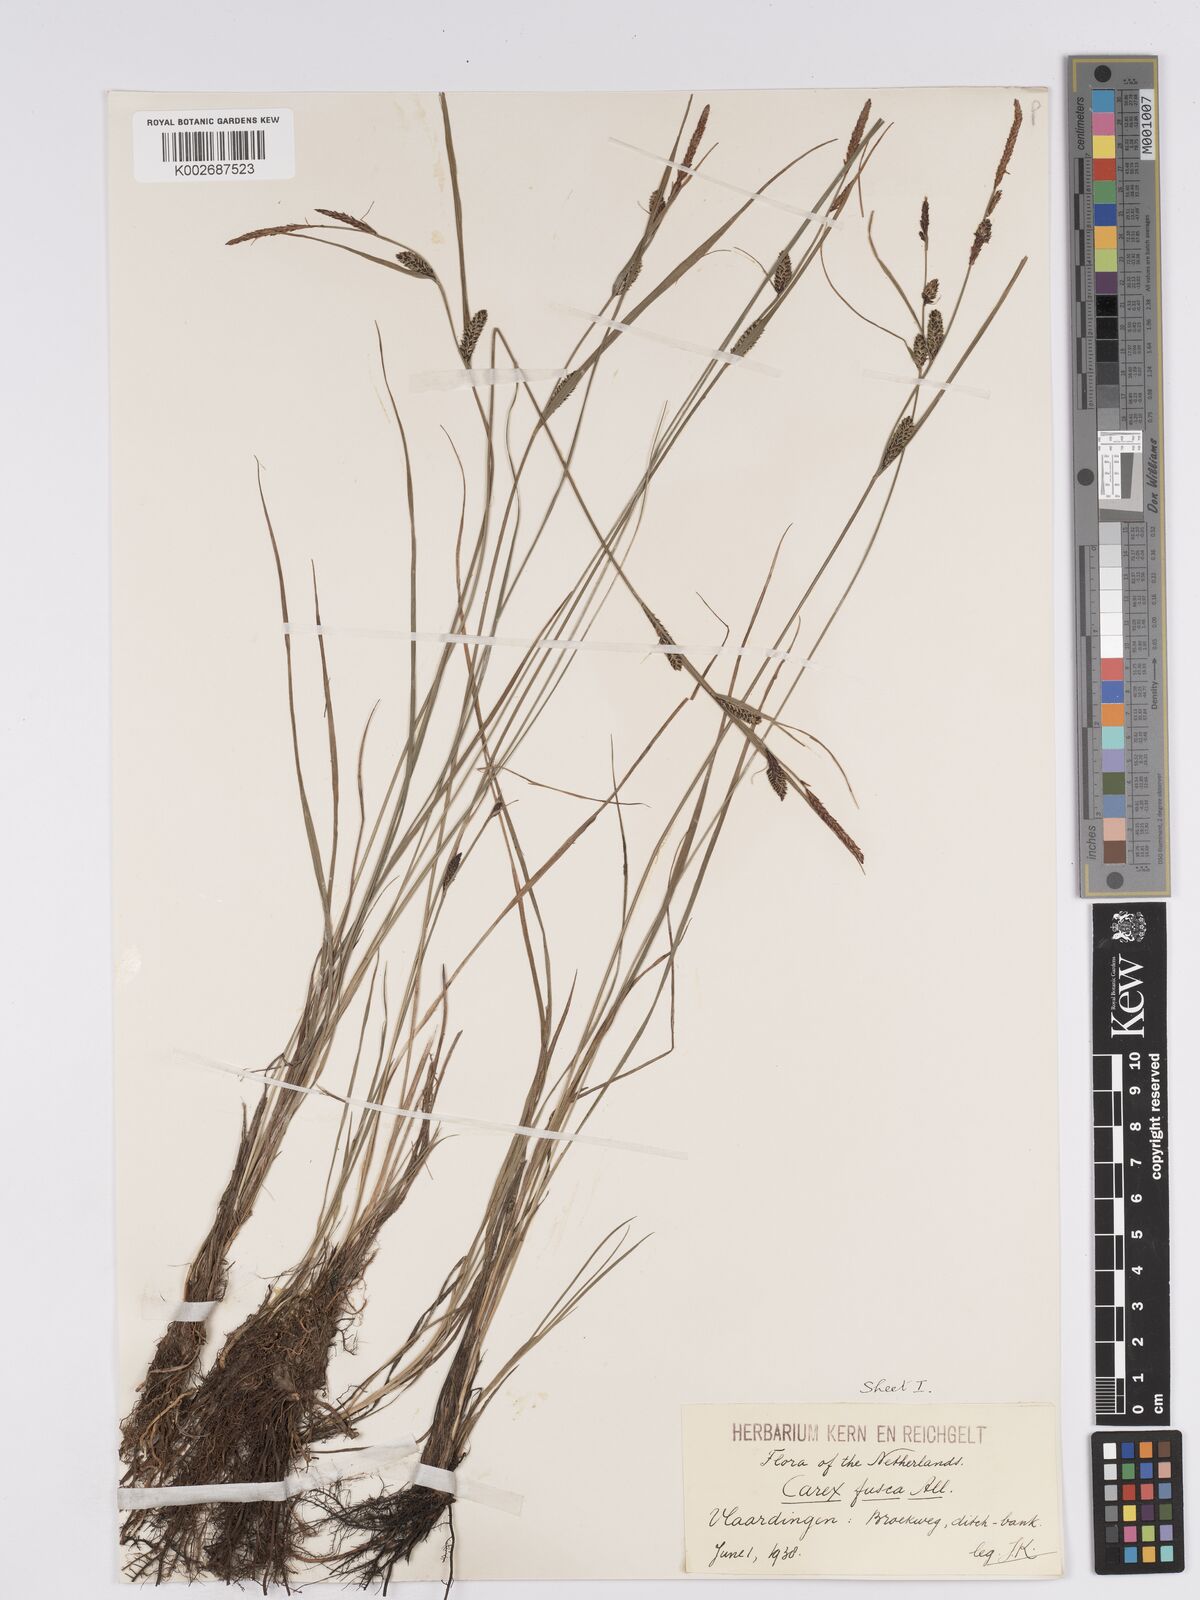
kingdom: Plantae
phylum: Tracheophyta
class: Liliopsida
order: Poales
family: Cyperaceae
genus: Carex
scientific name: Carex nigra
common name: Common sedge
